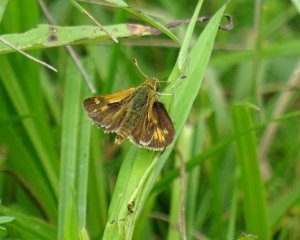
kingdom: Animalia
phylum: Arthropoda
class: Insecta
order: Lepidoptera
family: Hesperiidae
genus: Polites
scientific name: Polites coras
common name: Peck's Skipper
